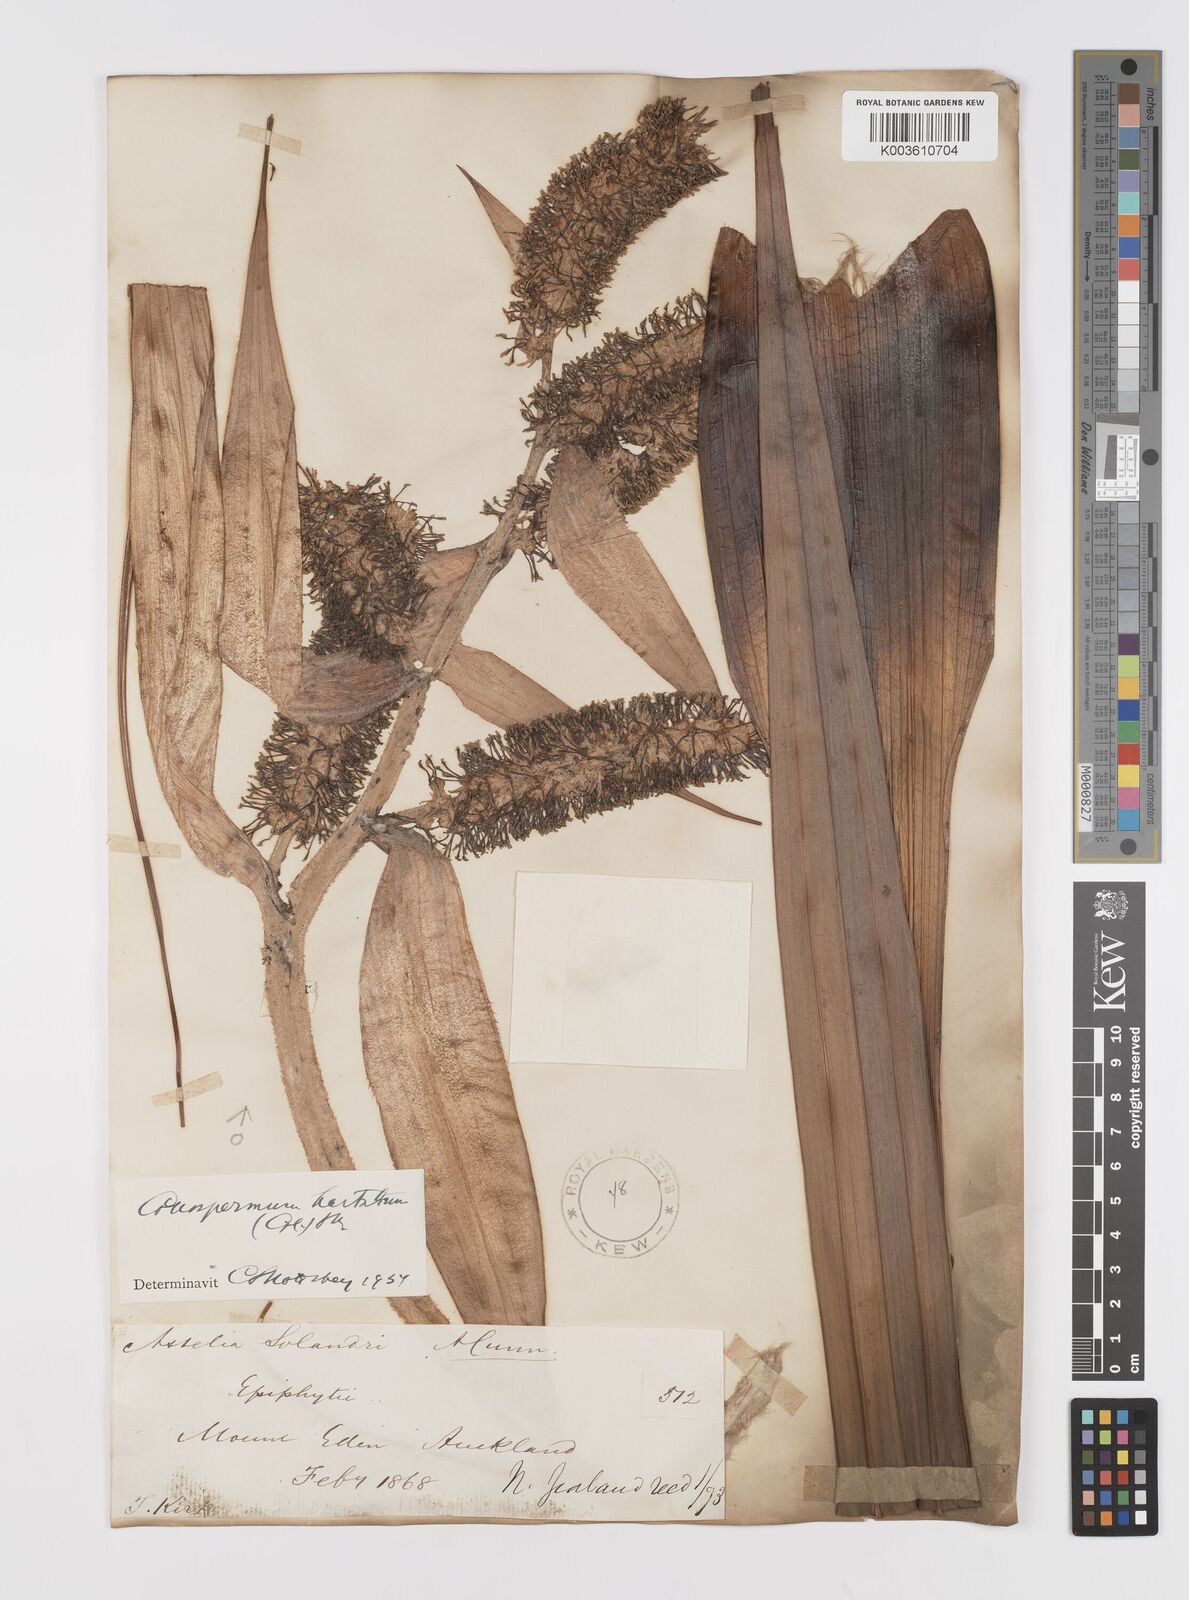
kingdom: Plantae
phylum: Tracheophyta
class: Liliopsida
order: Asparagales
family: Asteliaceae
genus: Astelia
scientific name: Astelia hastata
